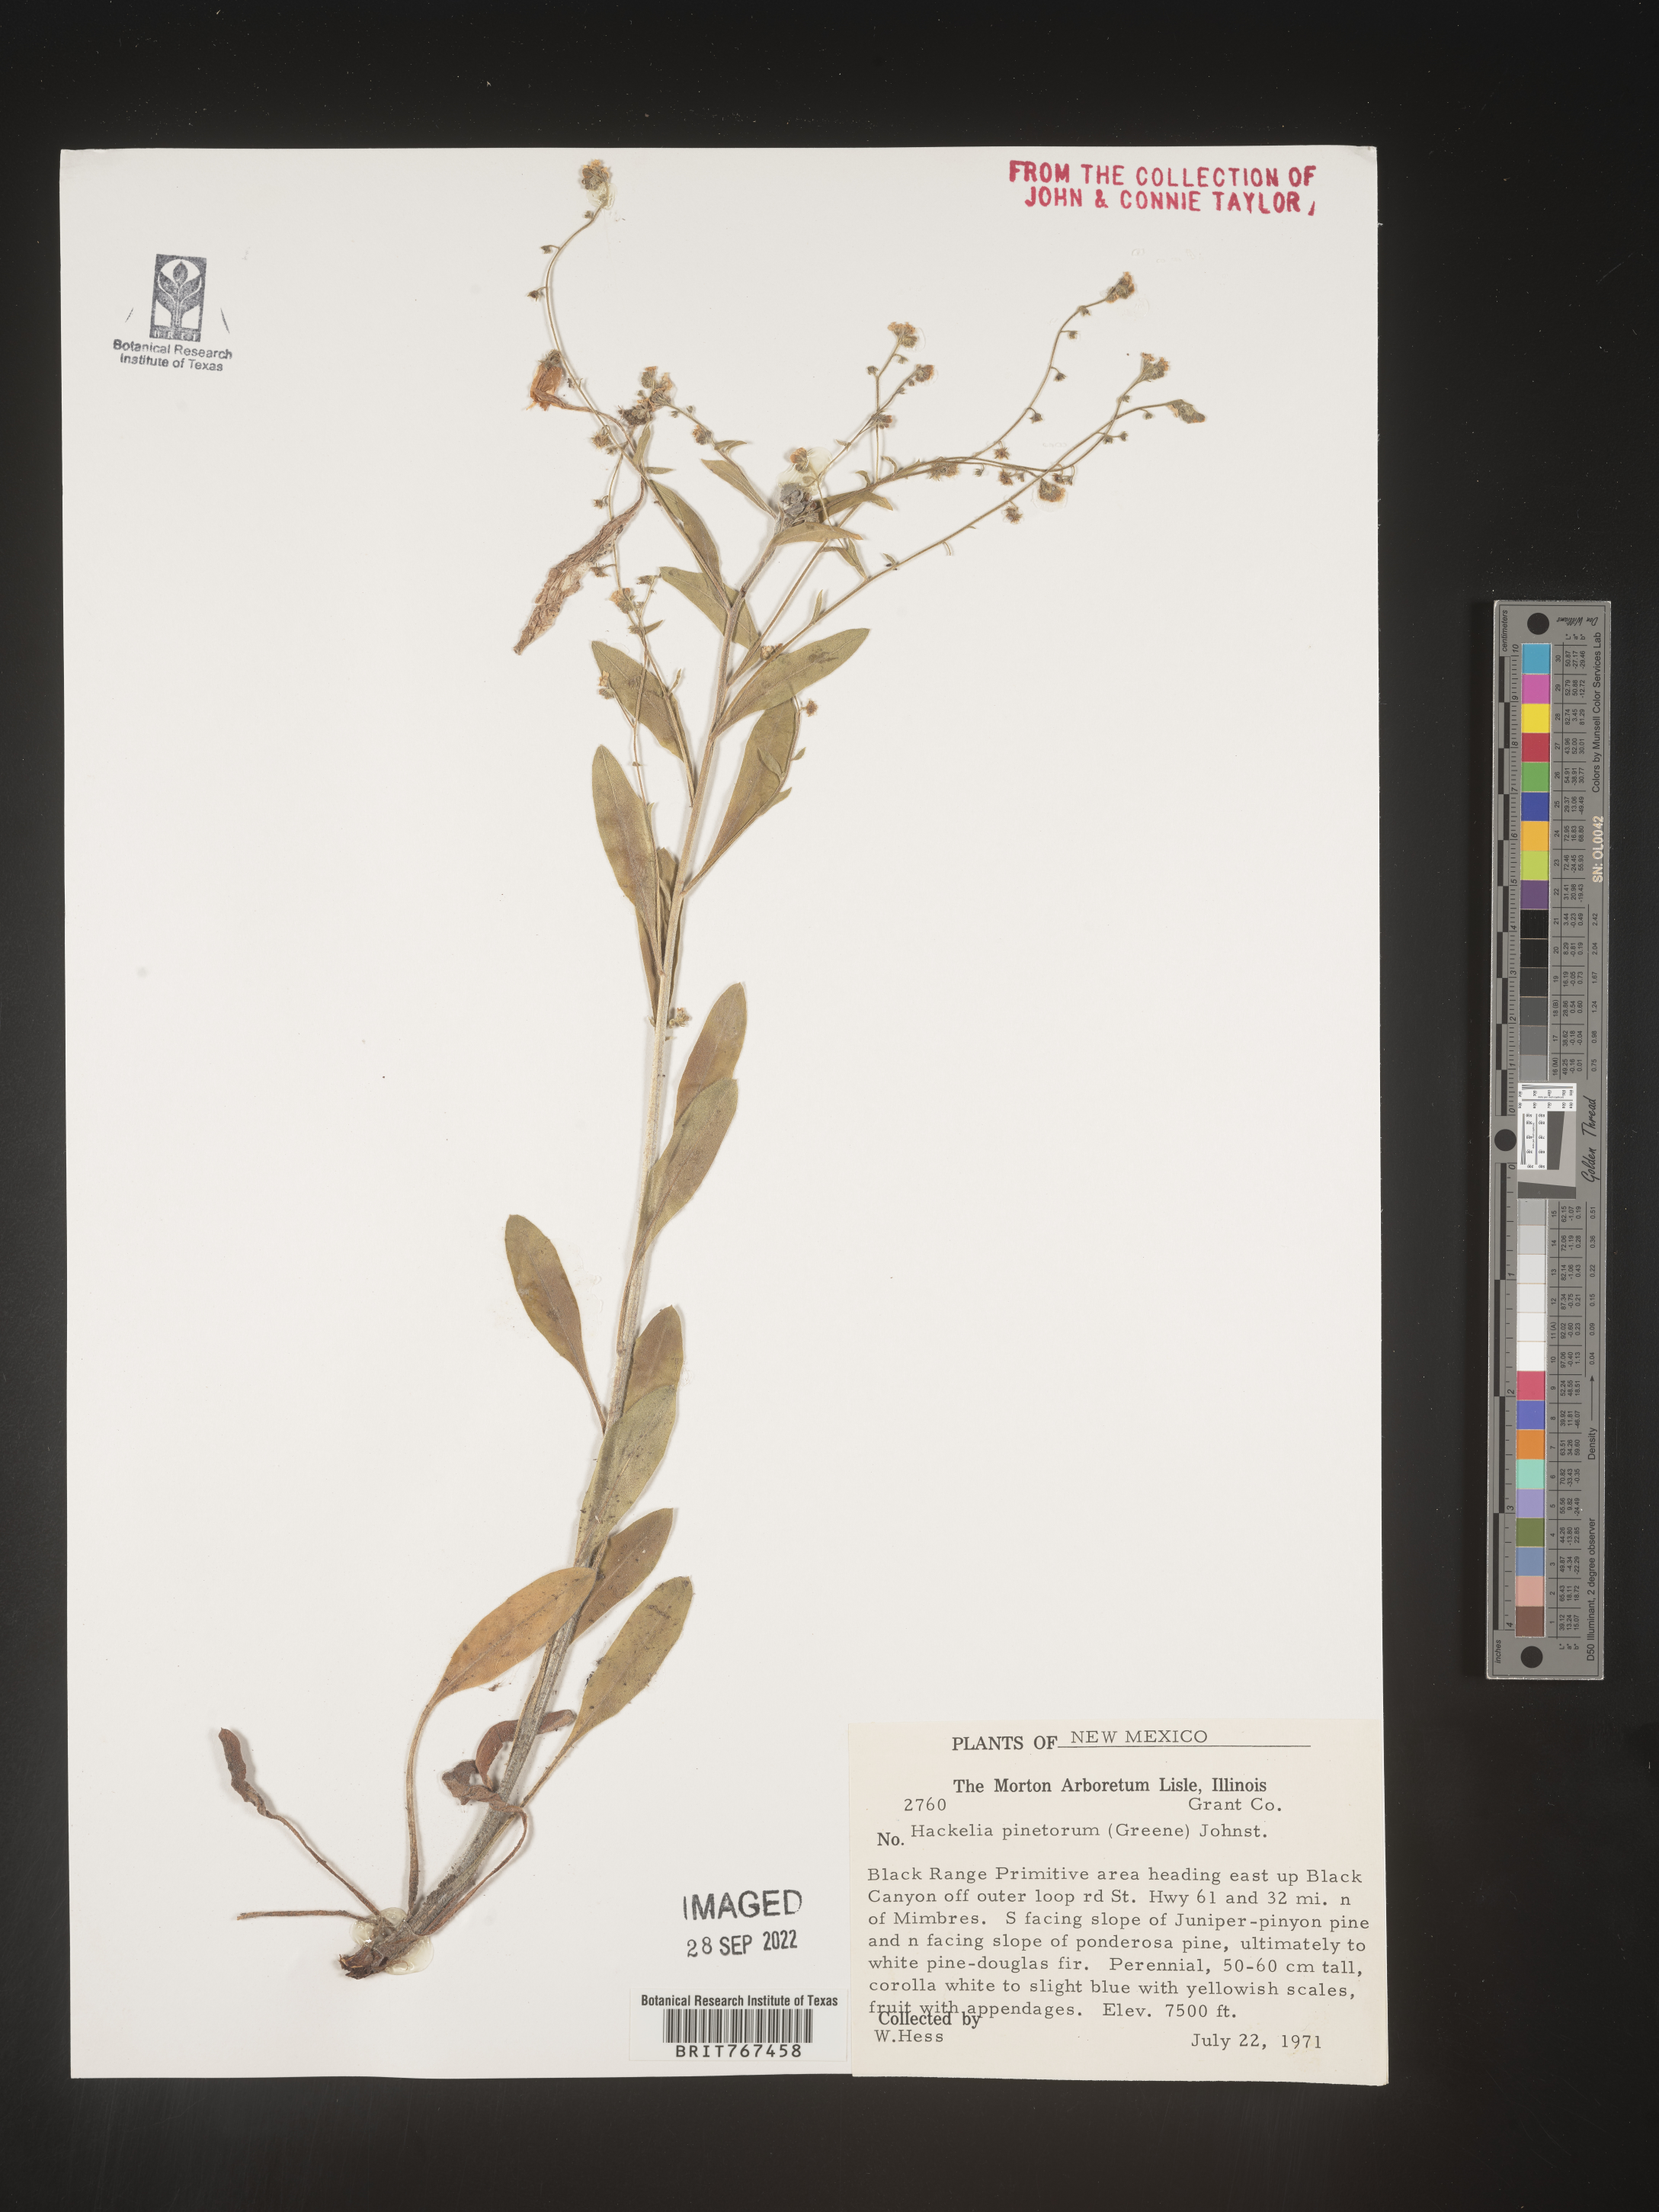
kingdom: Plantae
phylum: Tracheophyta
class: Magnoliopsida
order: Boraginales
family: Boraginaceae
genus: Hackelia
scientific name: Hackelia
